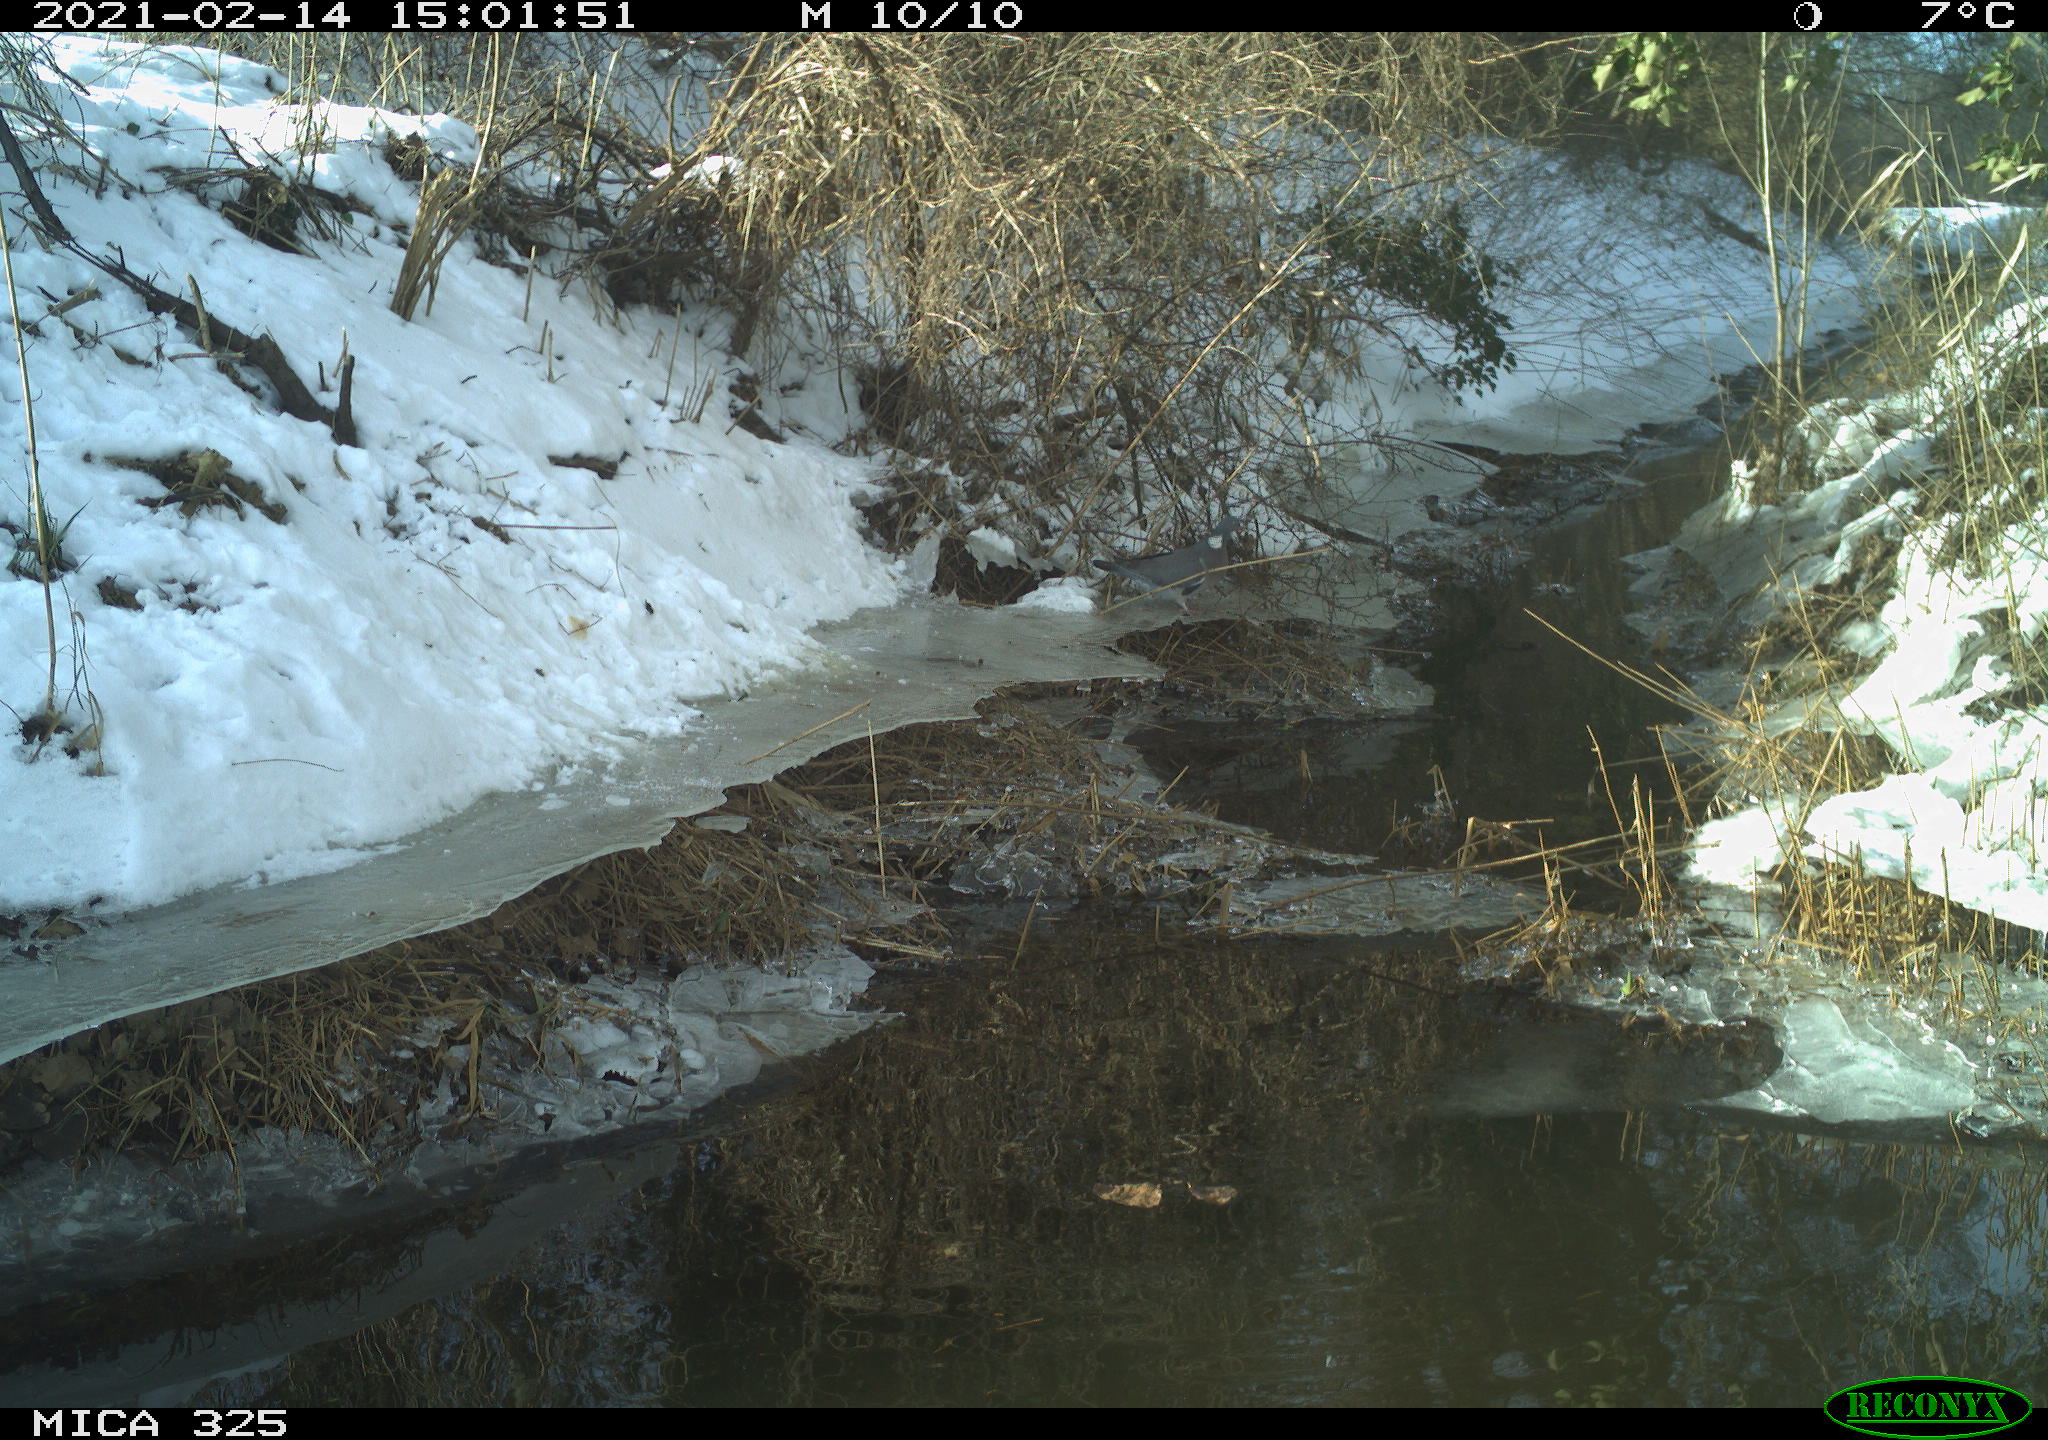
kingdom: Animalia
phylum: Chordata
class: Aves
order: Columbiformes
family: Columbidae
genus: Columba
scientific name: Columba palumbus
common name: Common wood pigeon
